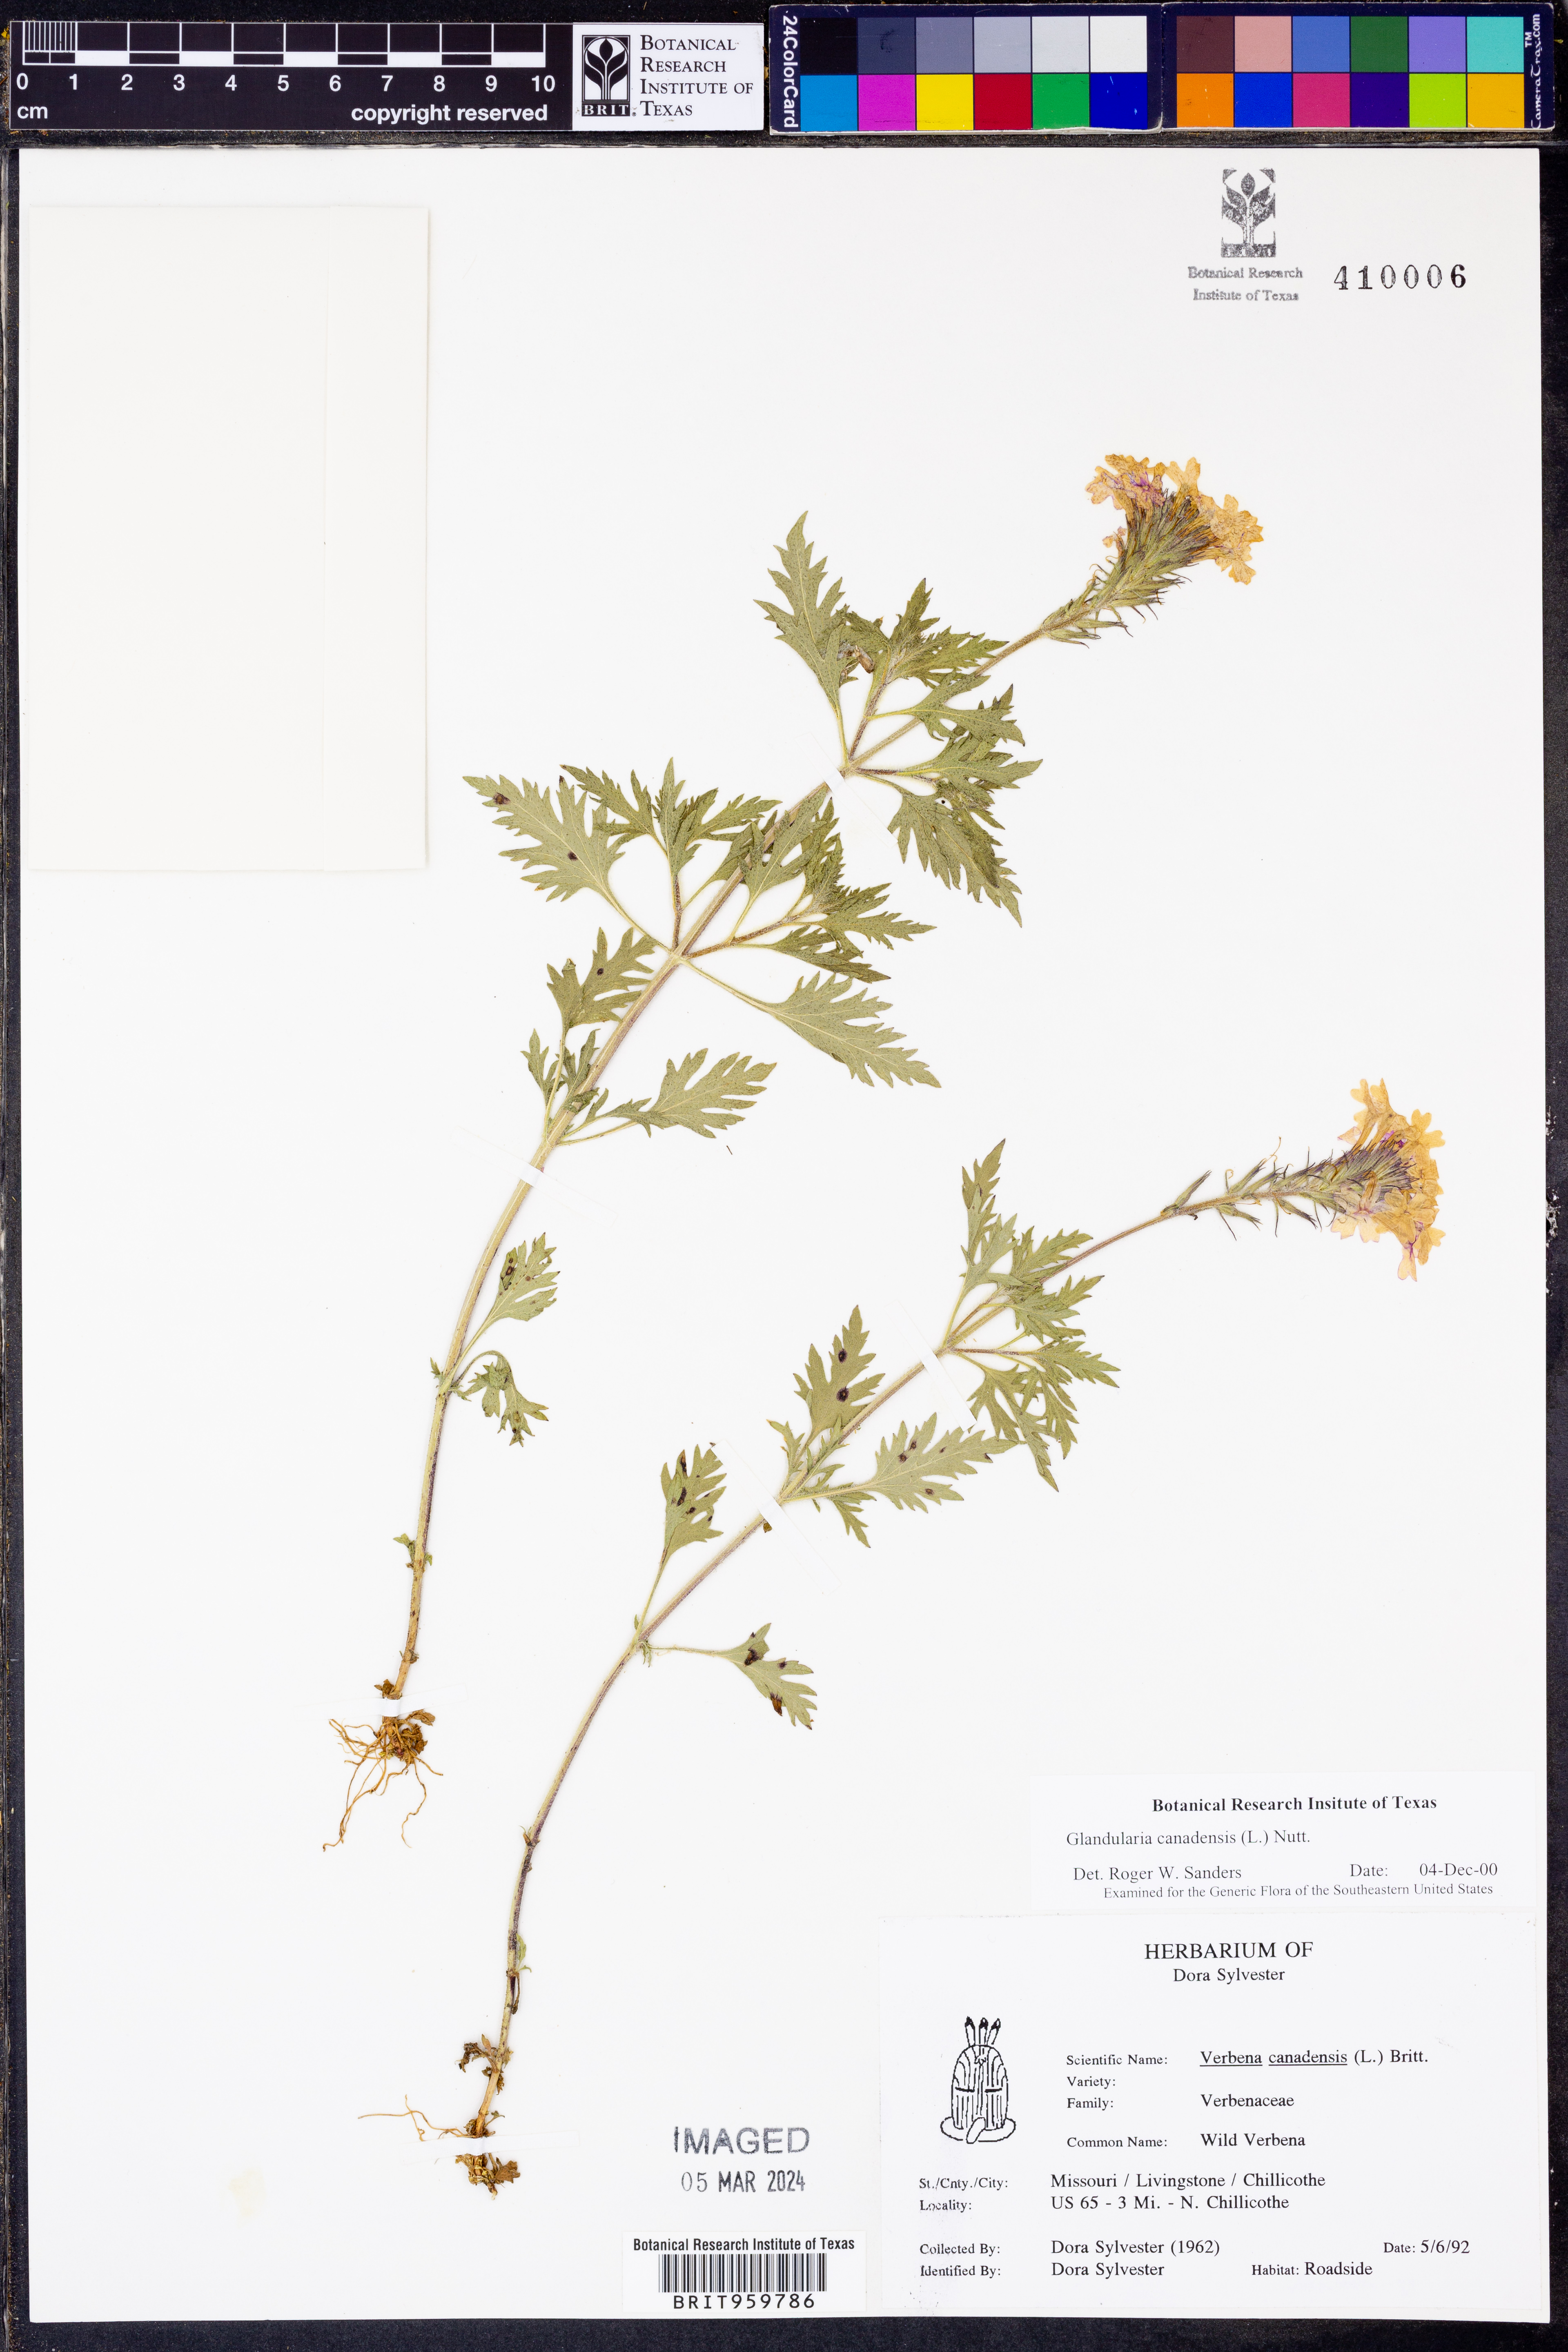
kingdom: Plantae
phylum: Tracheophyta
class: Magnoliopsida
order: Lamiales
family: Verbenaceae
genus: Verbena
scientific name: Verbena canadensis
